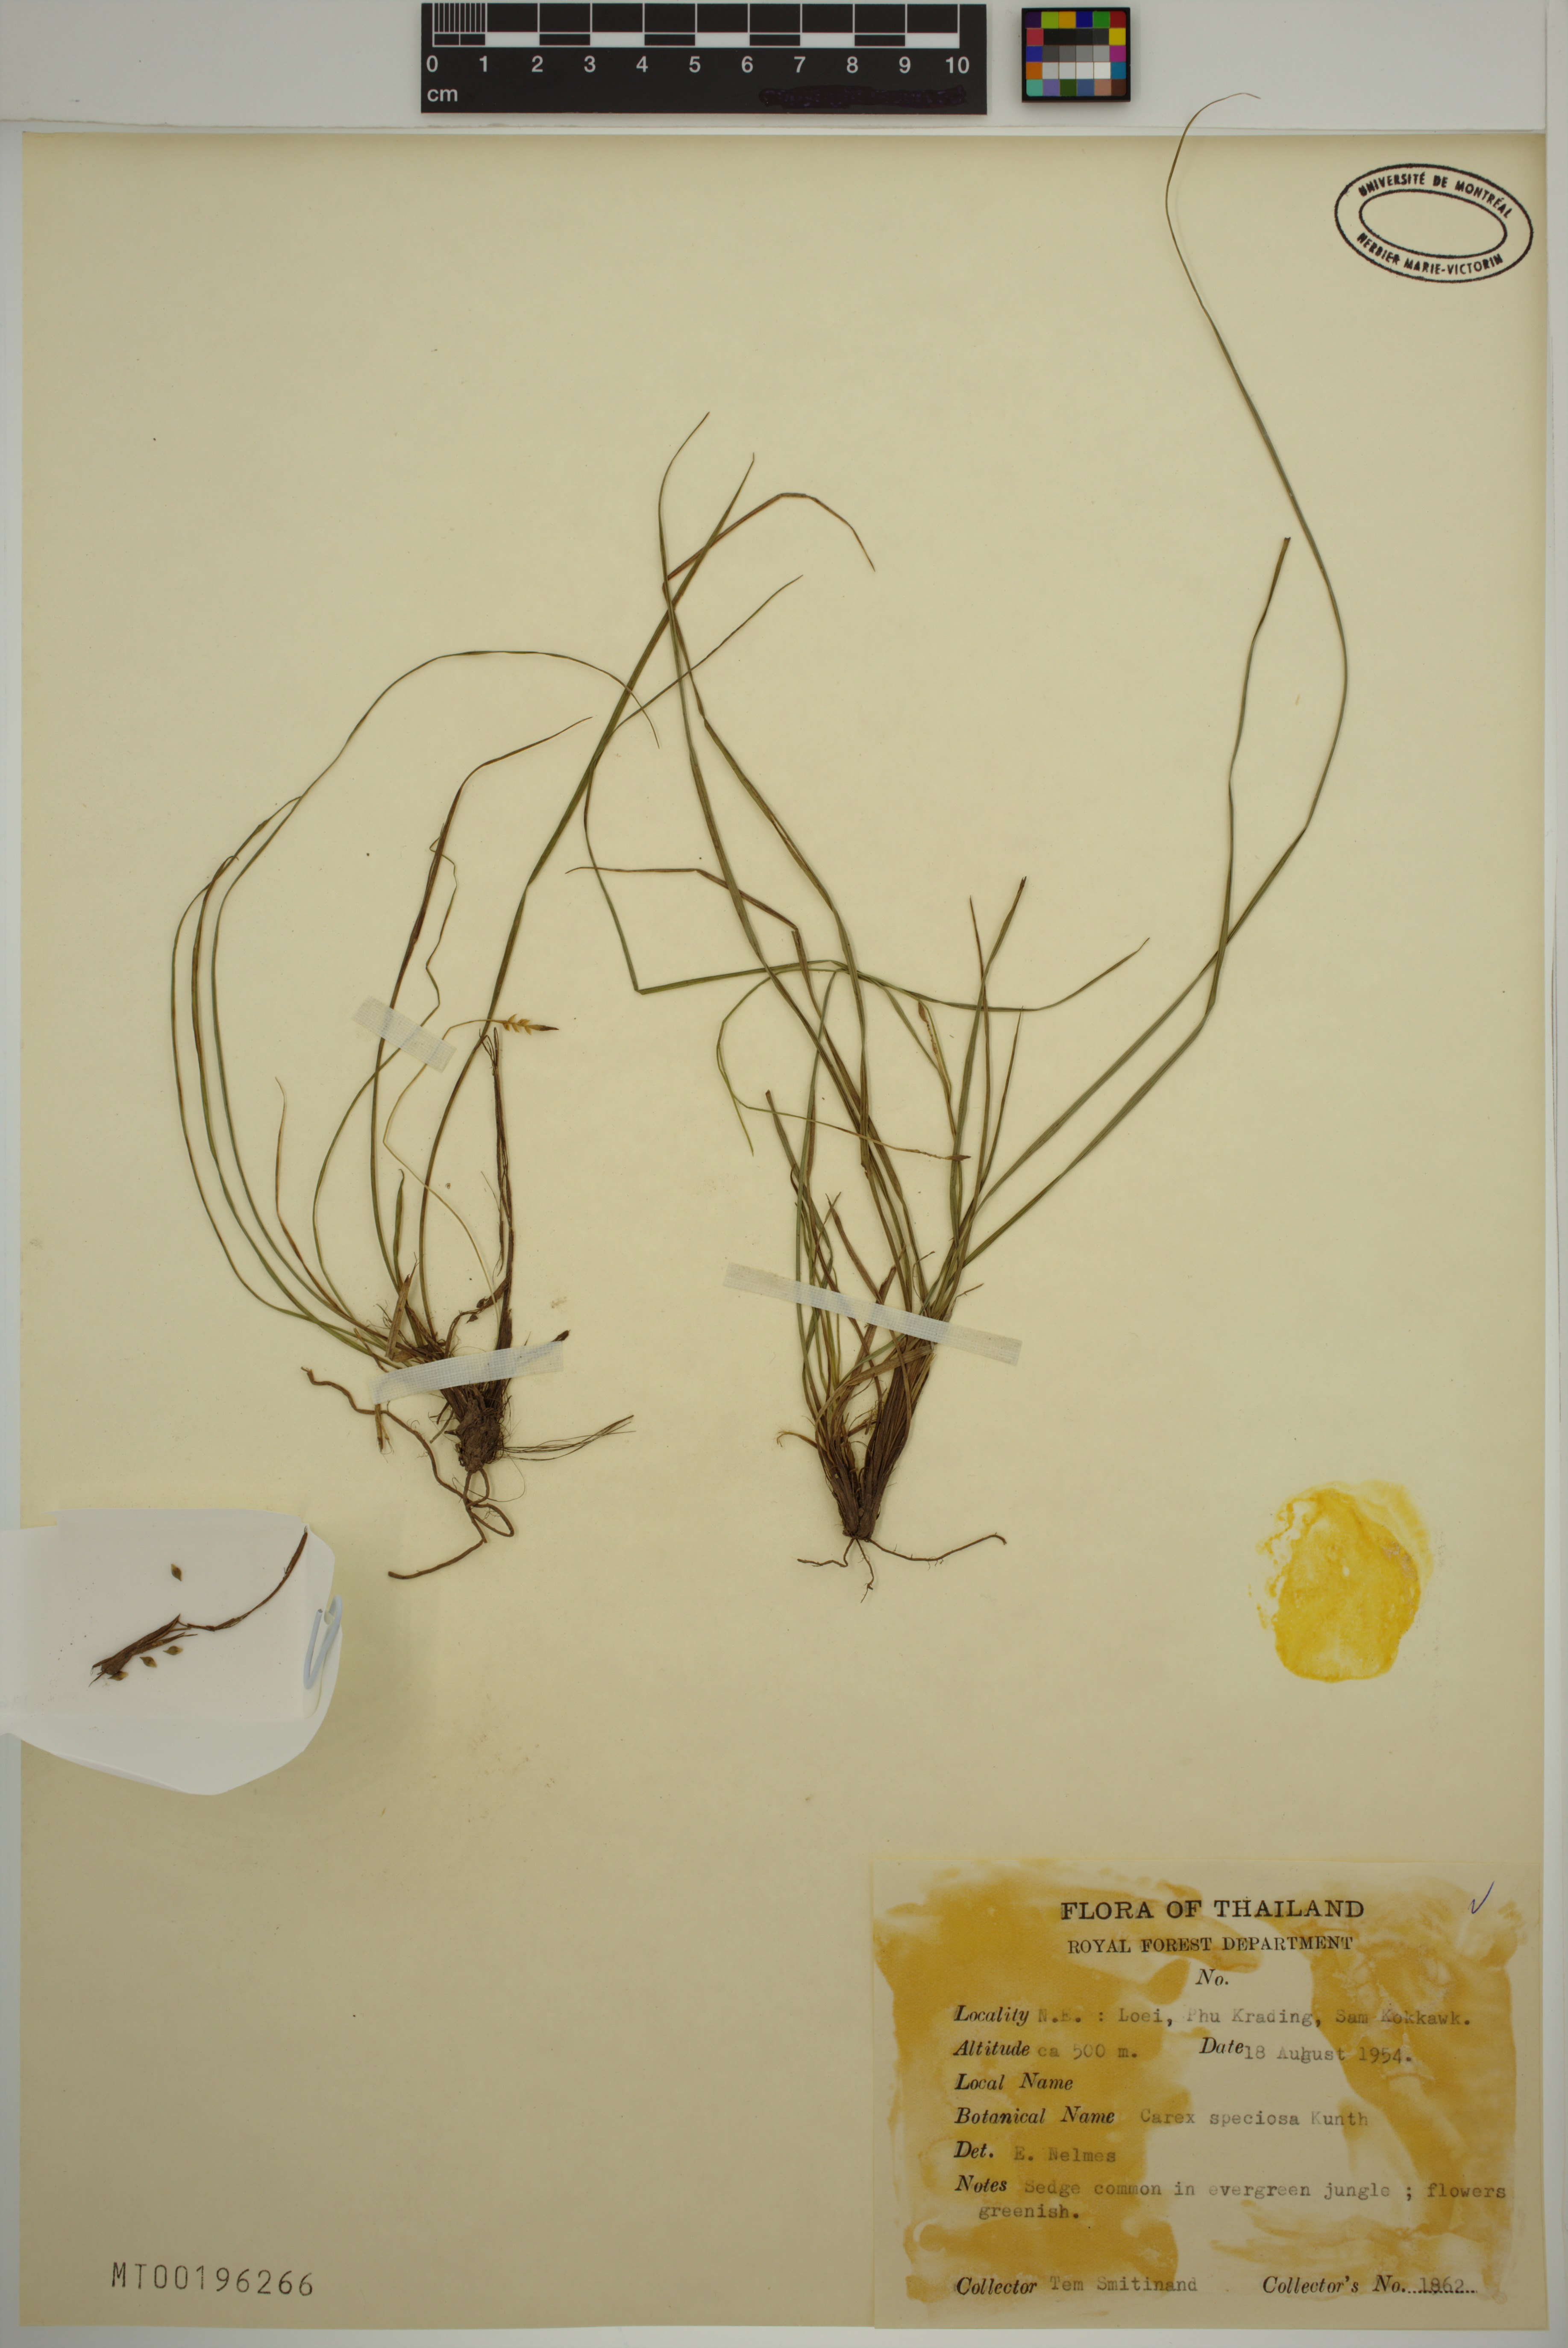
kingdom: Plantae
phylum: Tracheophyta
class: Liliopsida
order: Poales
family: Cyperaceae
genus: Carex
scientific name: Carex speciosa
